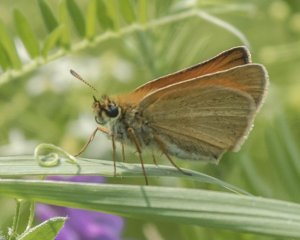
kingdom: Animalia
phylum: Arthropoda
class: Insecta
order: Lepidoptera
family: Hesperiidae
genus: Thymelicus
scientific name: Thymelicus lineola
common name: European Skipper
